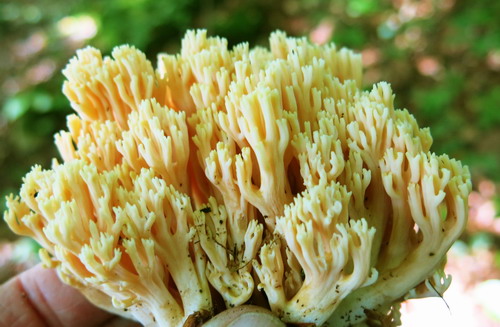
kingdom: Fungi
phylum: Basidiomycota
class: Agaricomycetes
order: Gomphales
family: Gomphaceae
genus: Ramaria
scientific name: Ramaria fagetorum
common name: abrikos-koralsvamp
